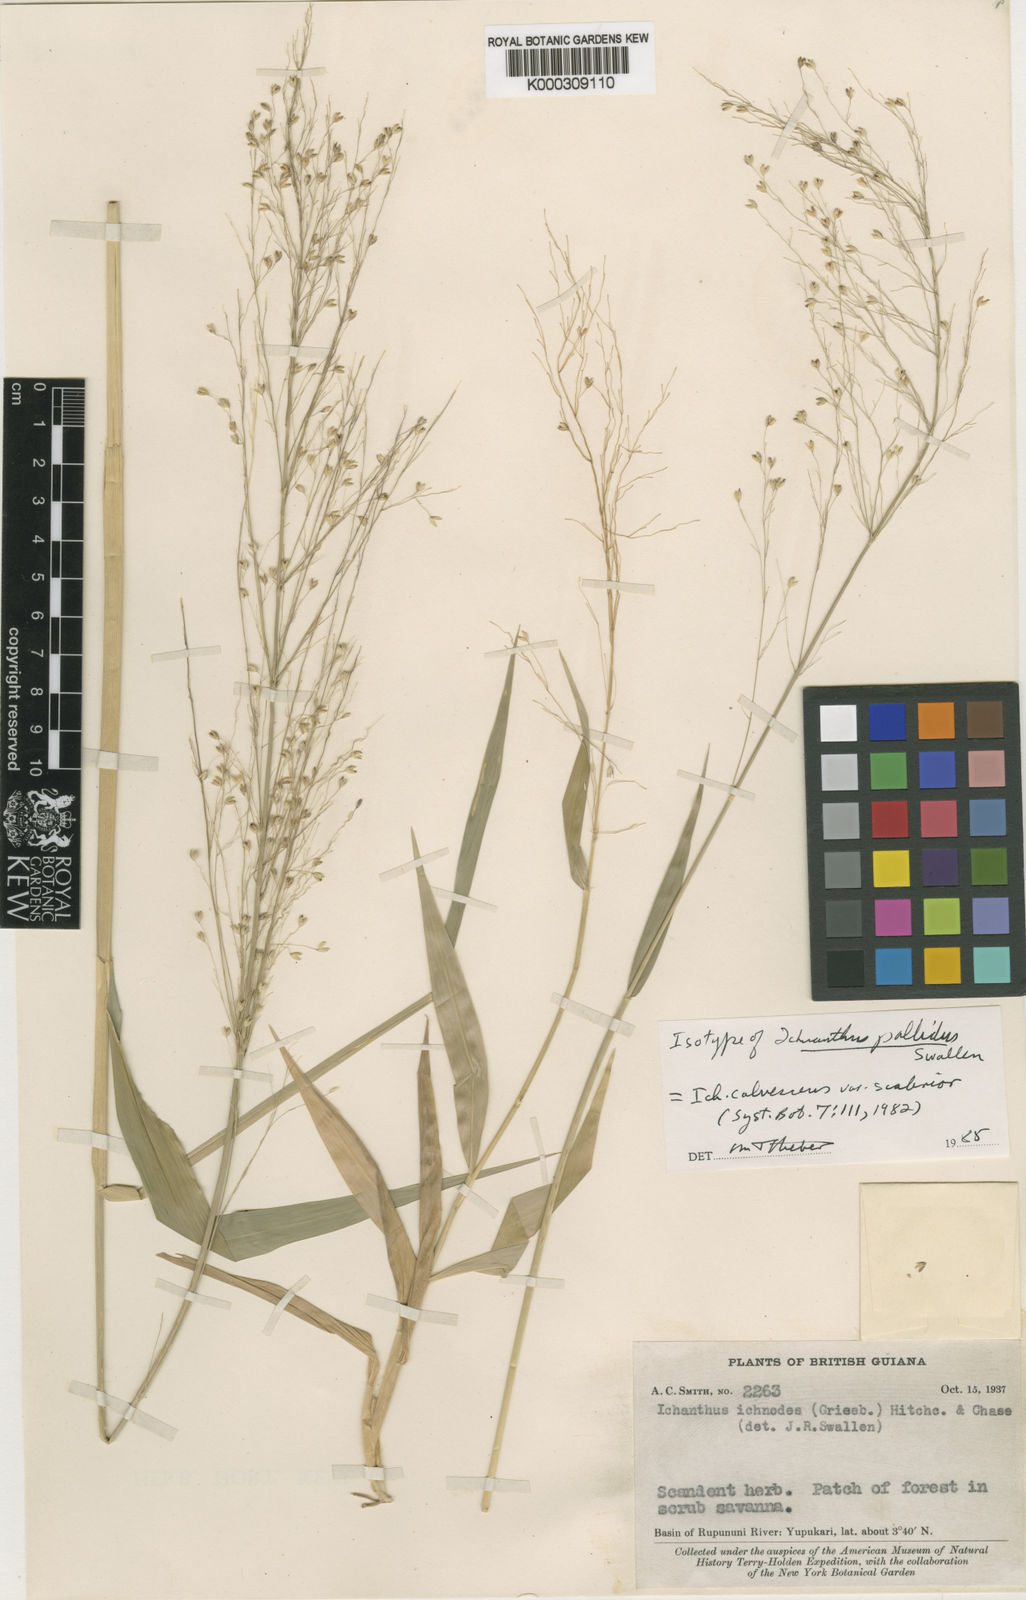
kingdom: Plantae
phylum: Tracheophyta
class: Liliopsida
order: Poales
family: Poaceae
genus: Ichnanthus
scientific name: Ichnanthus
